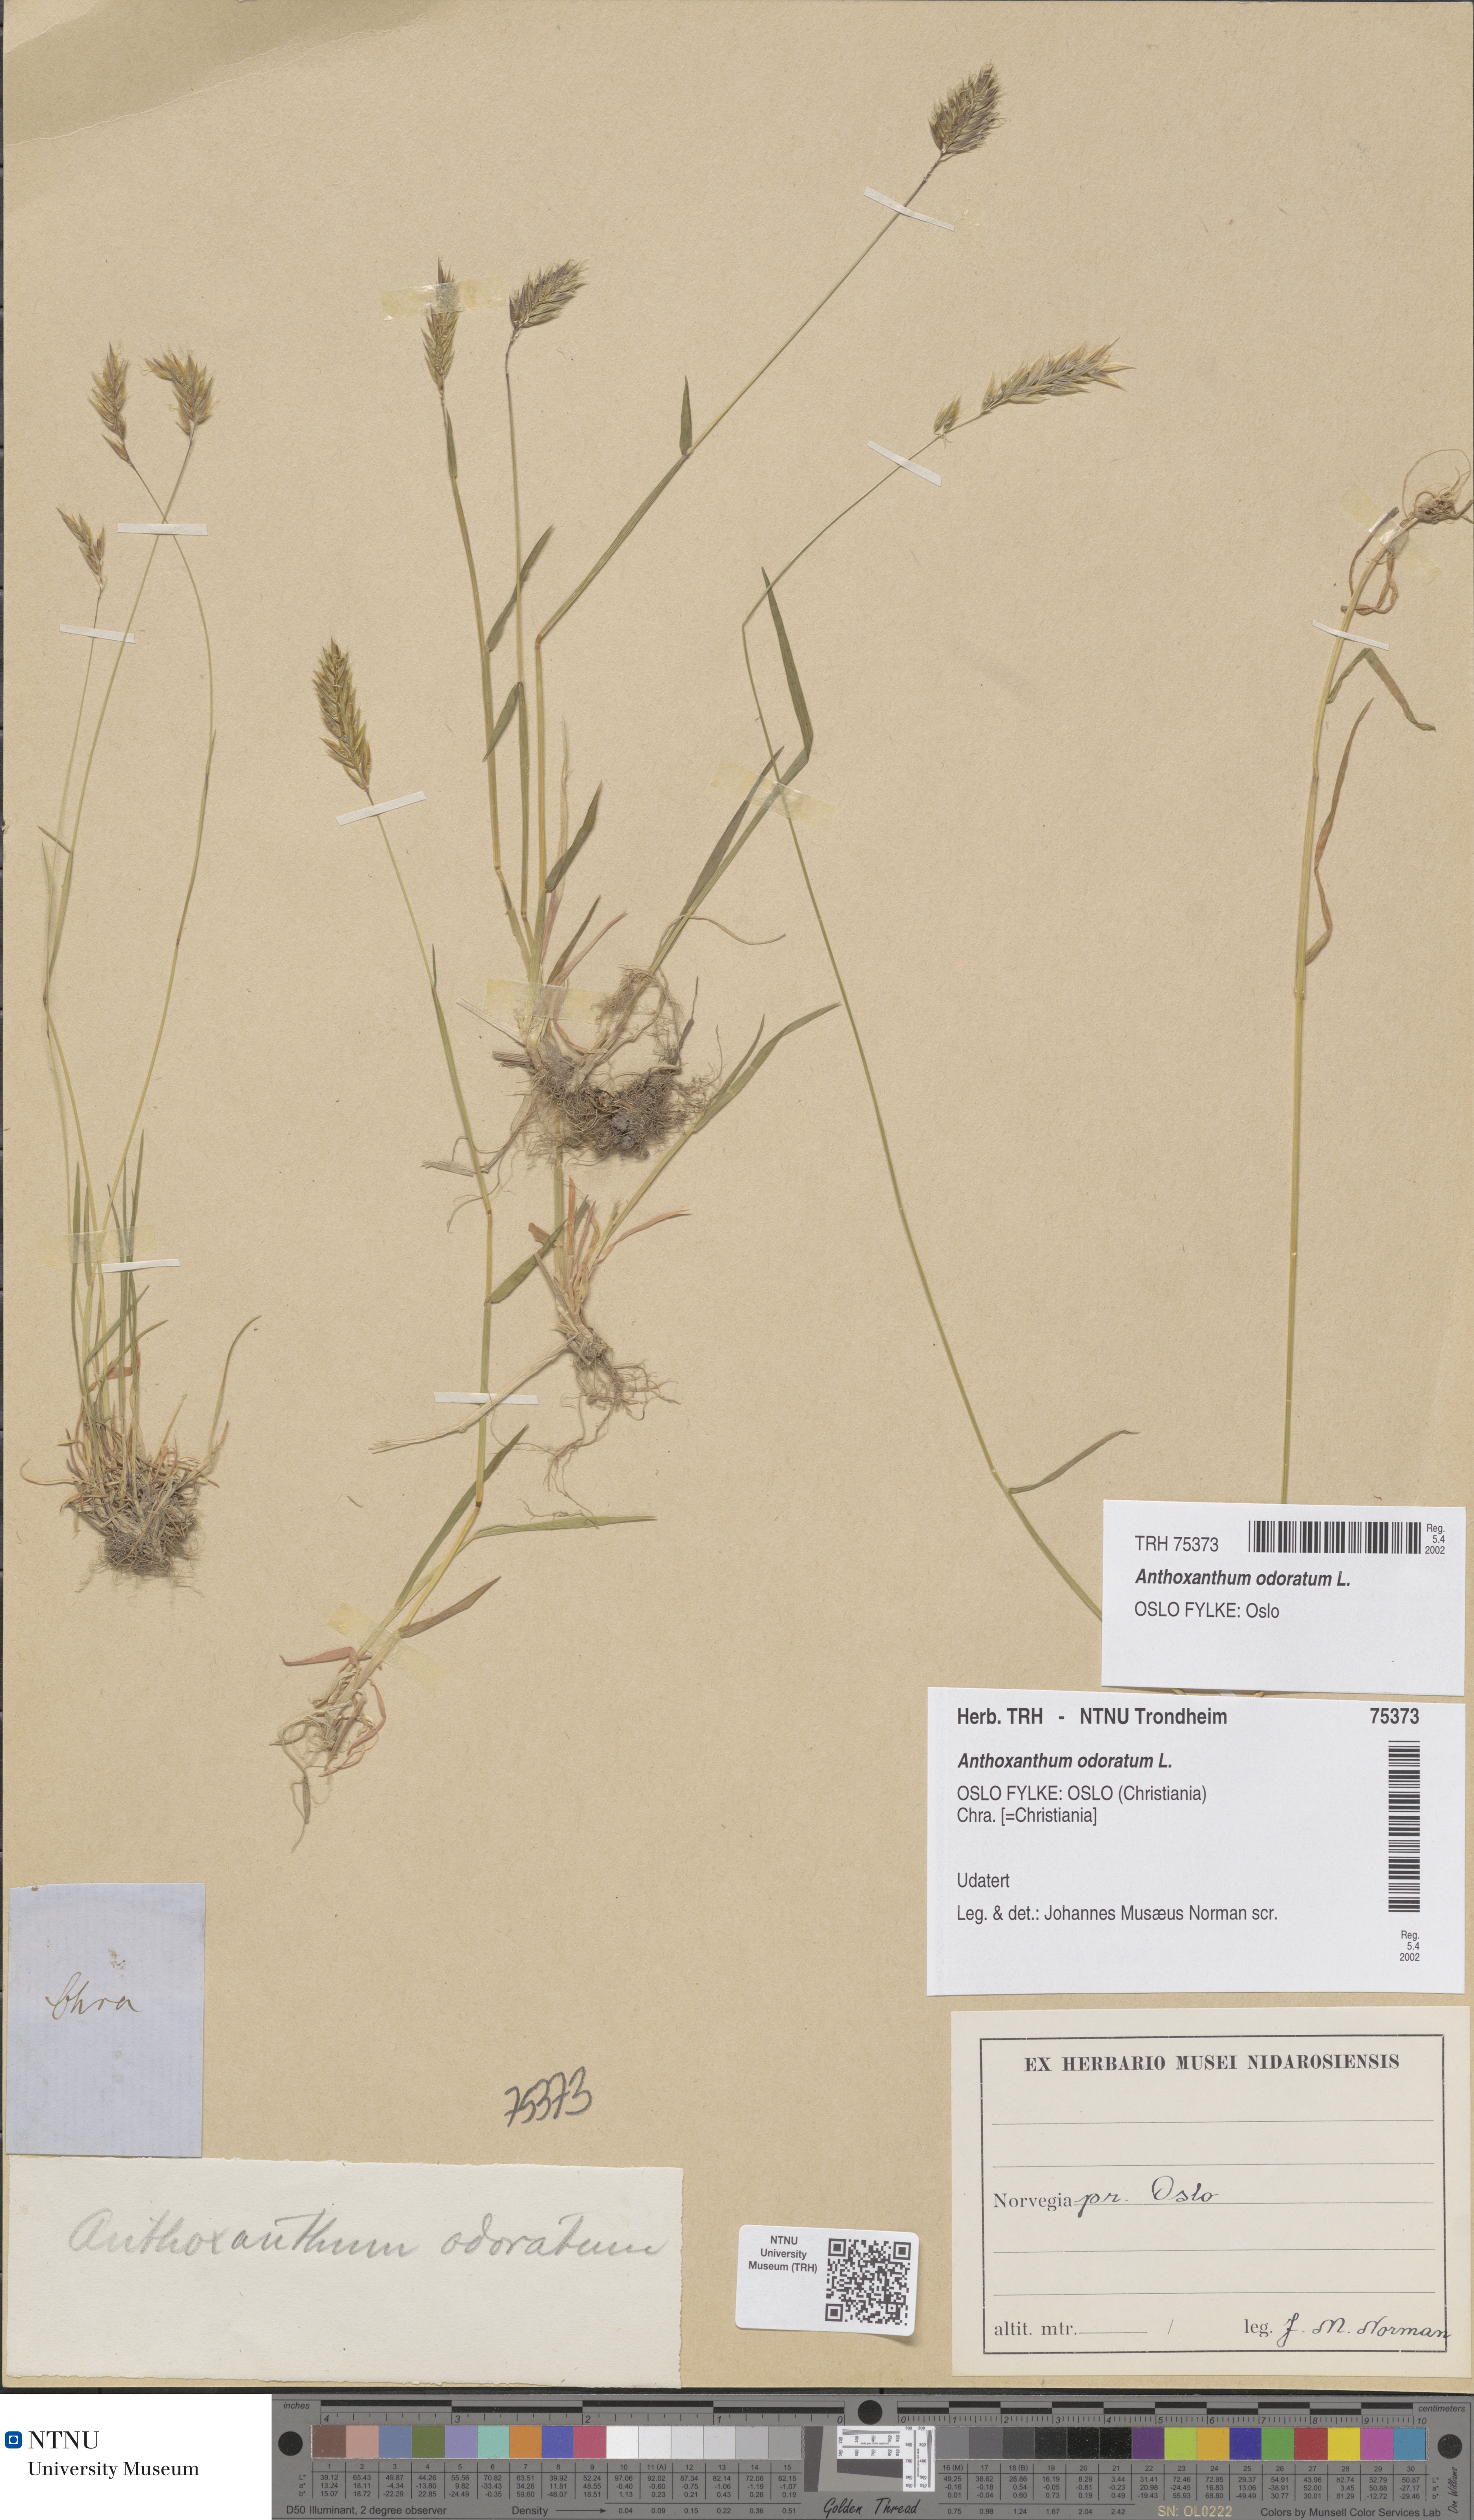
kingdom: Plantae
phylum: Tracheophyta
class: Liliopsida
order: Poales
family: Poaceae
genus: Anthoxanthum
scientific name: Anthoxanthum odoratum
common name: Sweet vernalgrass
